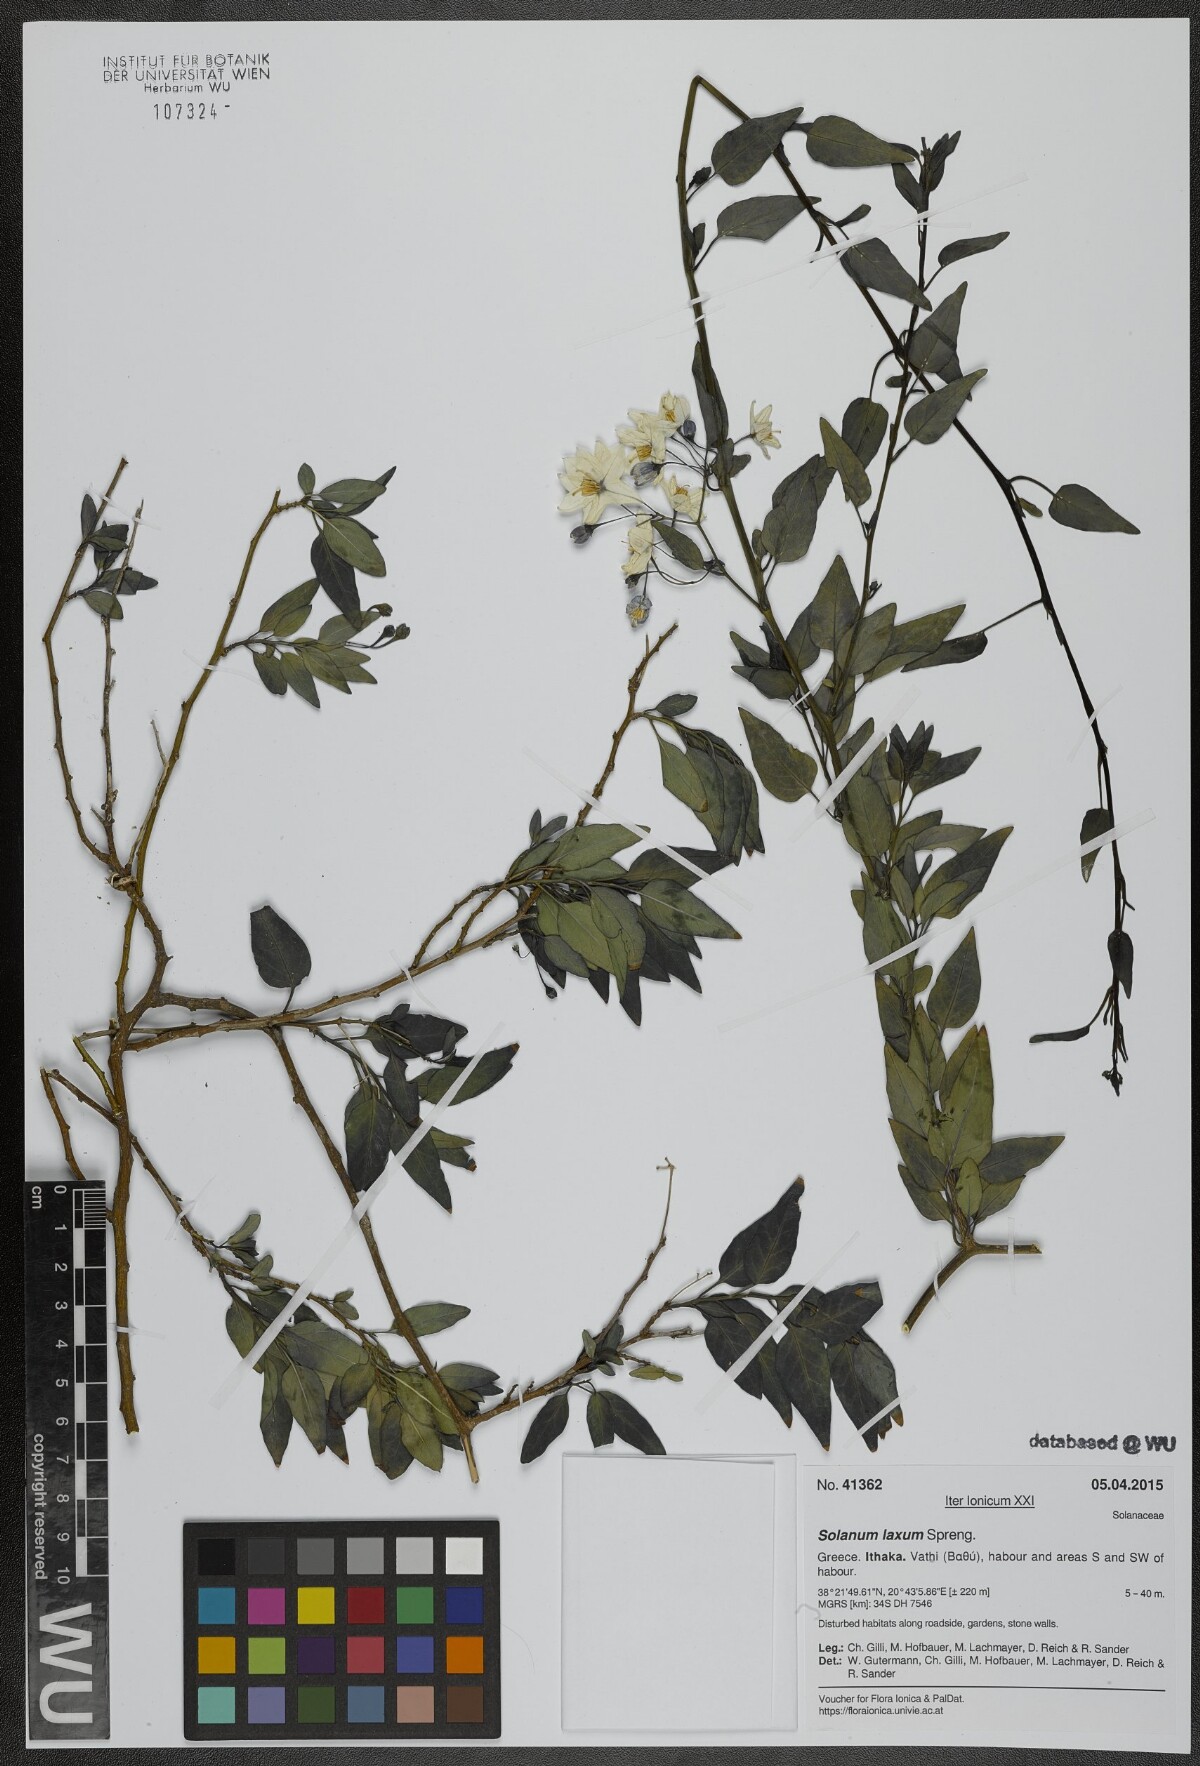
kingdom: Plantae
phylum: Tracheophyta
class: Magnoliopsida
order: Solanales
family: Solanaceae
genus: Solanum
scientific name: Solanum laxum
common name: Nightshade
